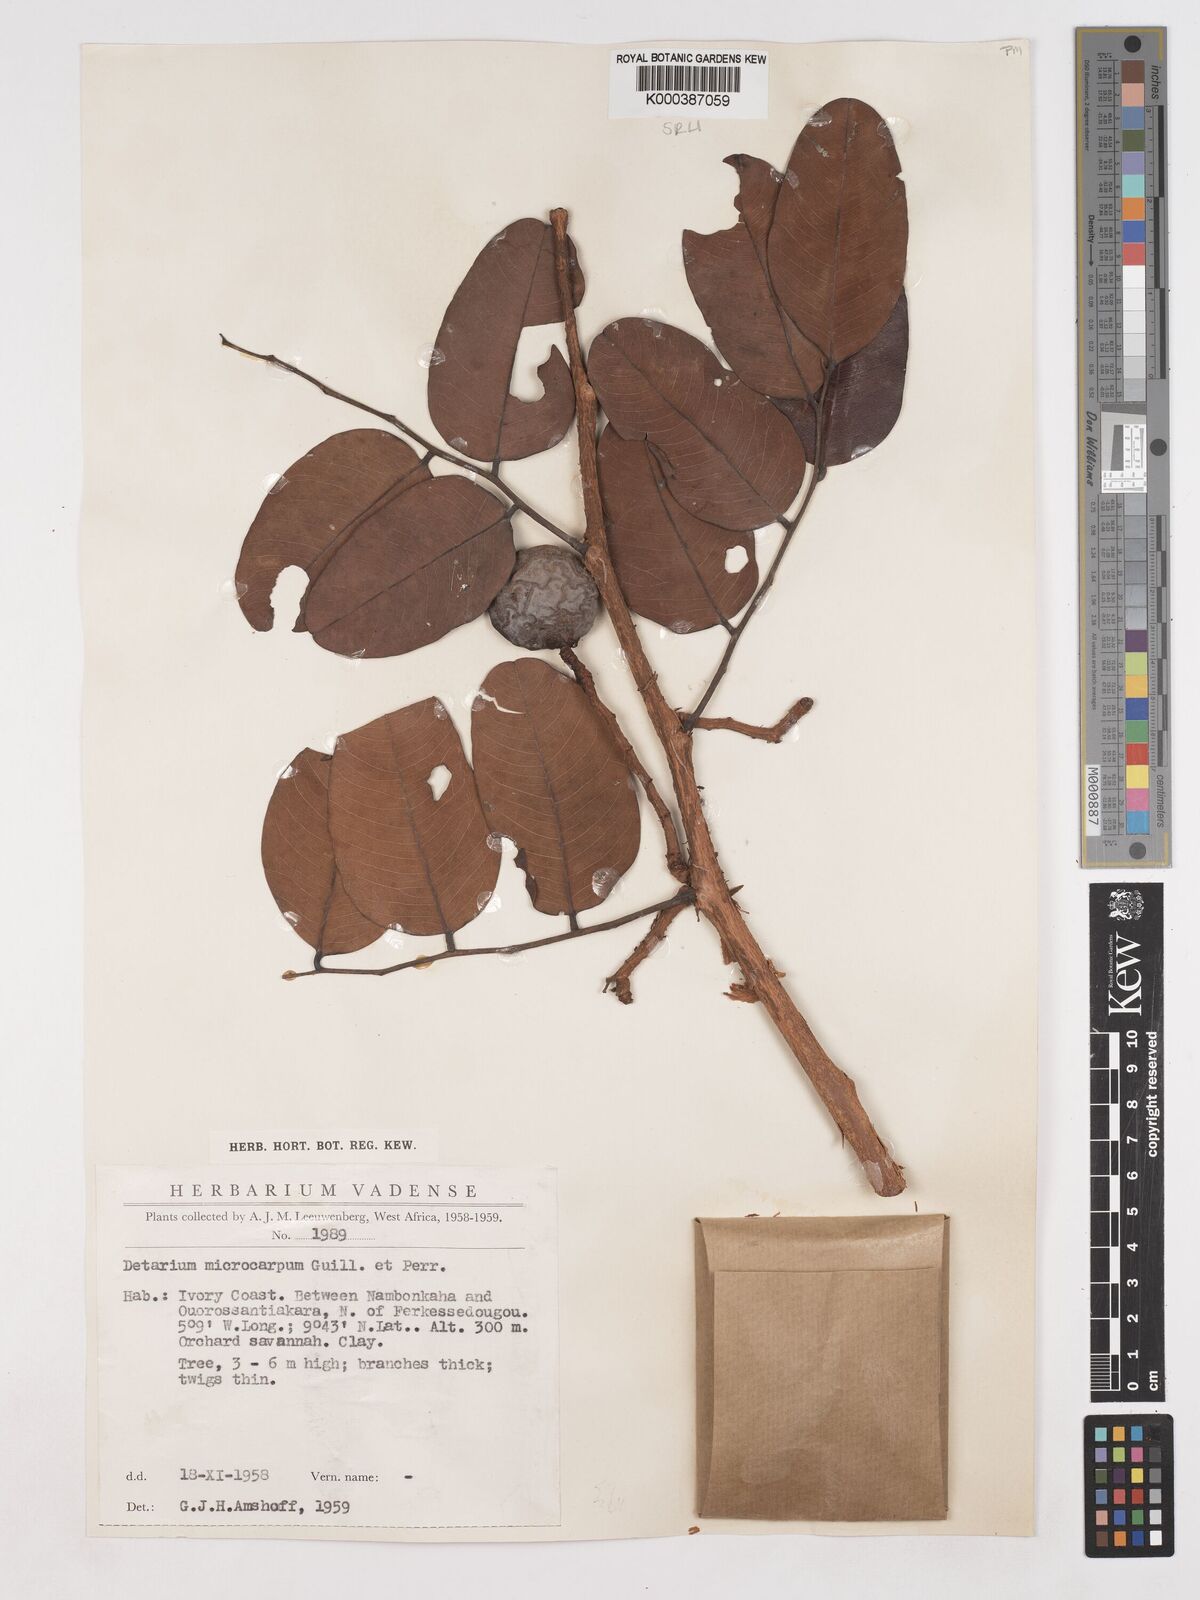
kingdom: Plantae
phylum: Tracheophyta
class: Magnoliopsida
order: Fabales
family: Fabaceae
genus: Detarium
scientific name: Detarium microcarpum
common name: Sweet dattock
